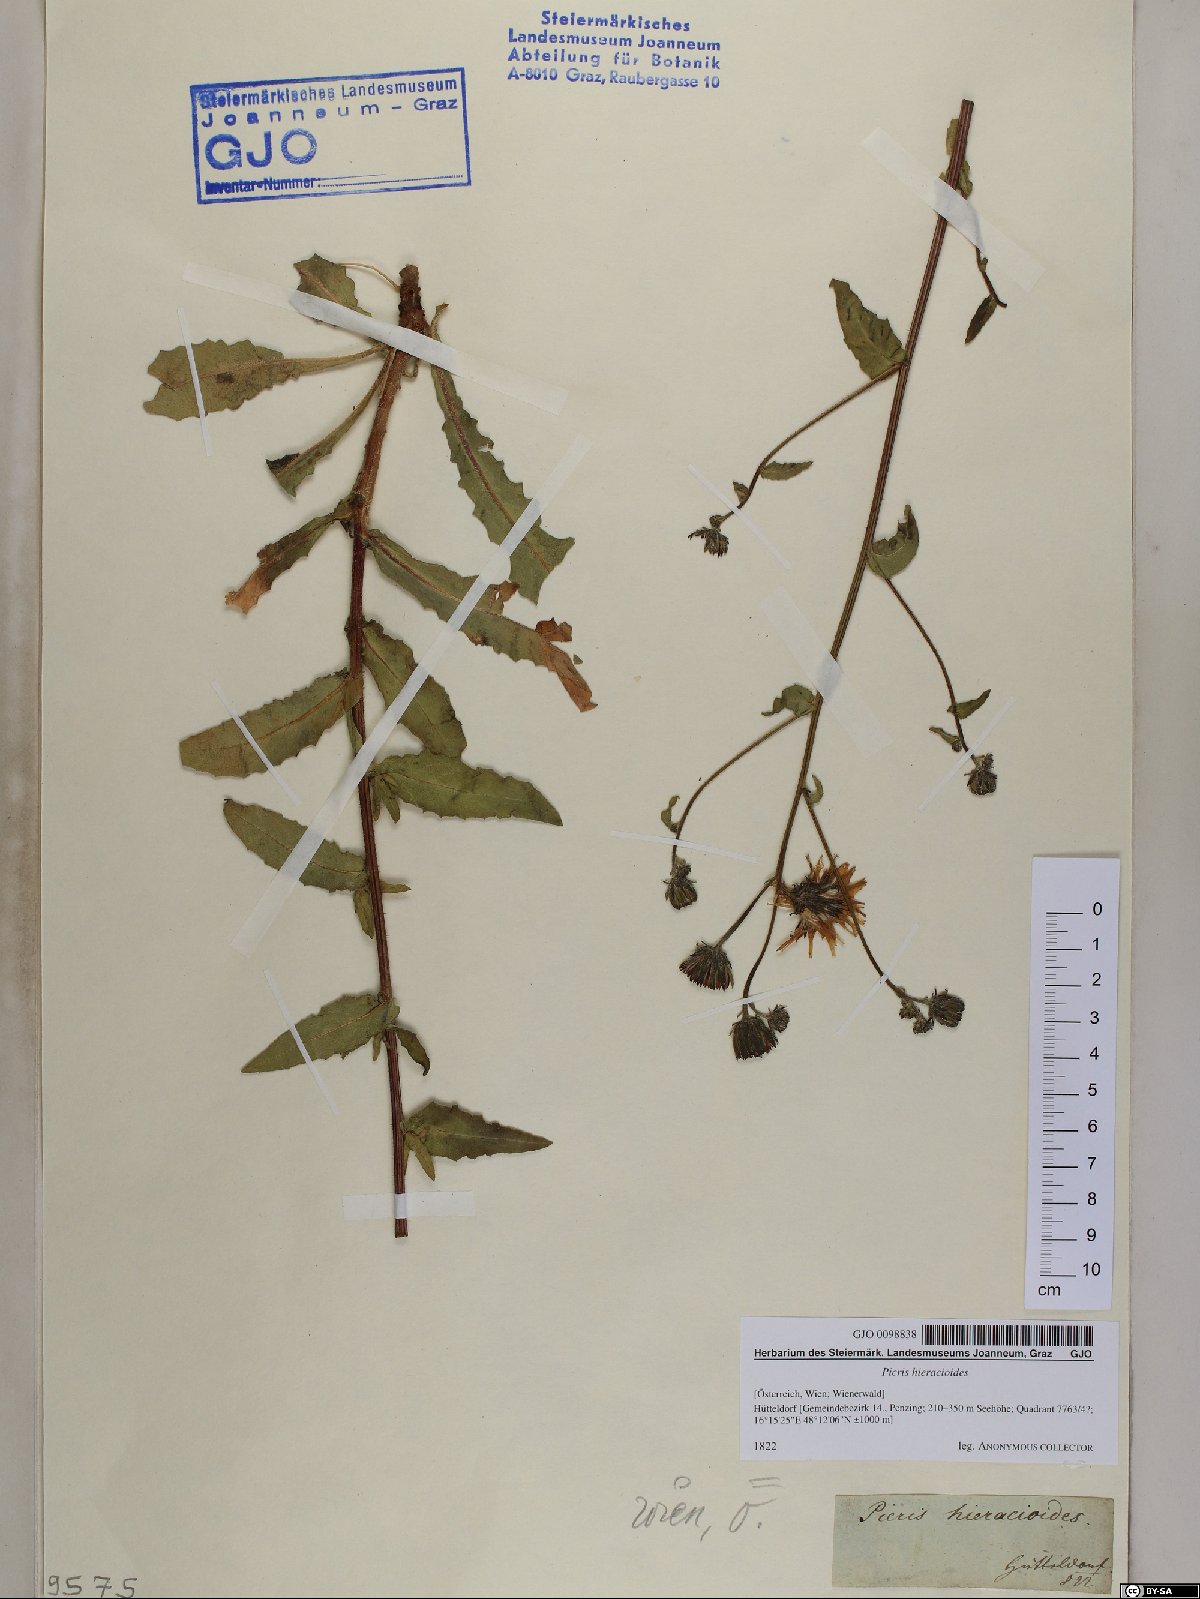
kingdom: Plantae
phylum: Tracheophyta
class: Magnoliopsida
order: Asterales
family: Asteraceae
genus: Picris
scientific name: Picris hieracioides
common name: Hawkweed oxtongue
